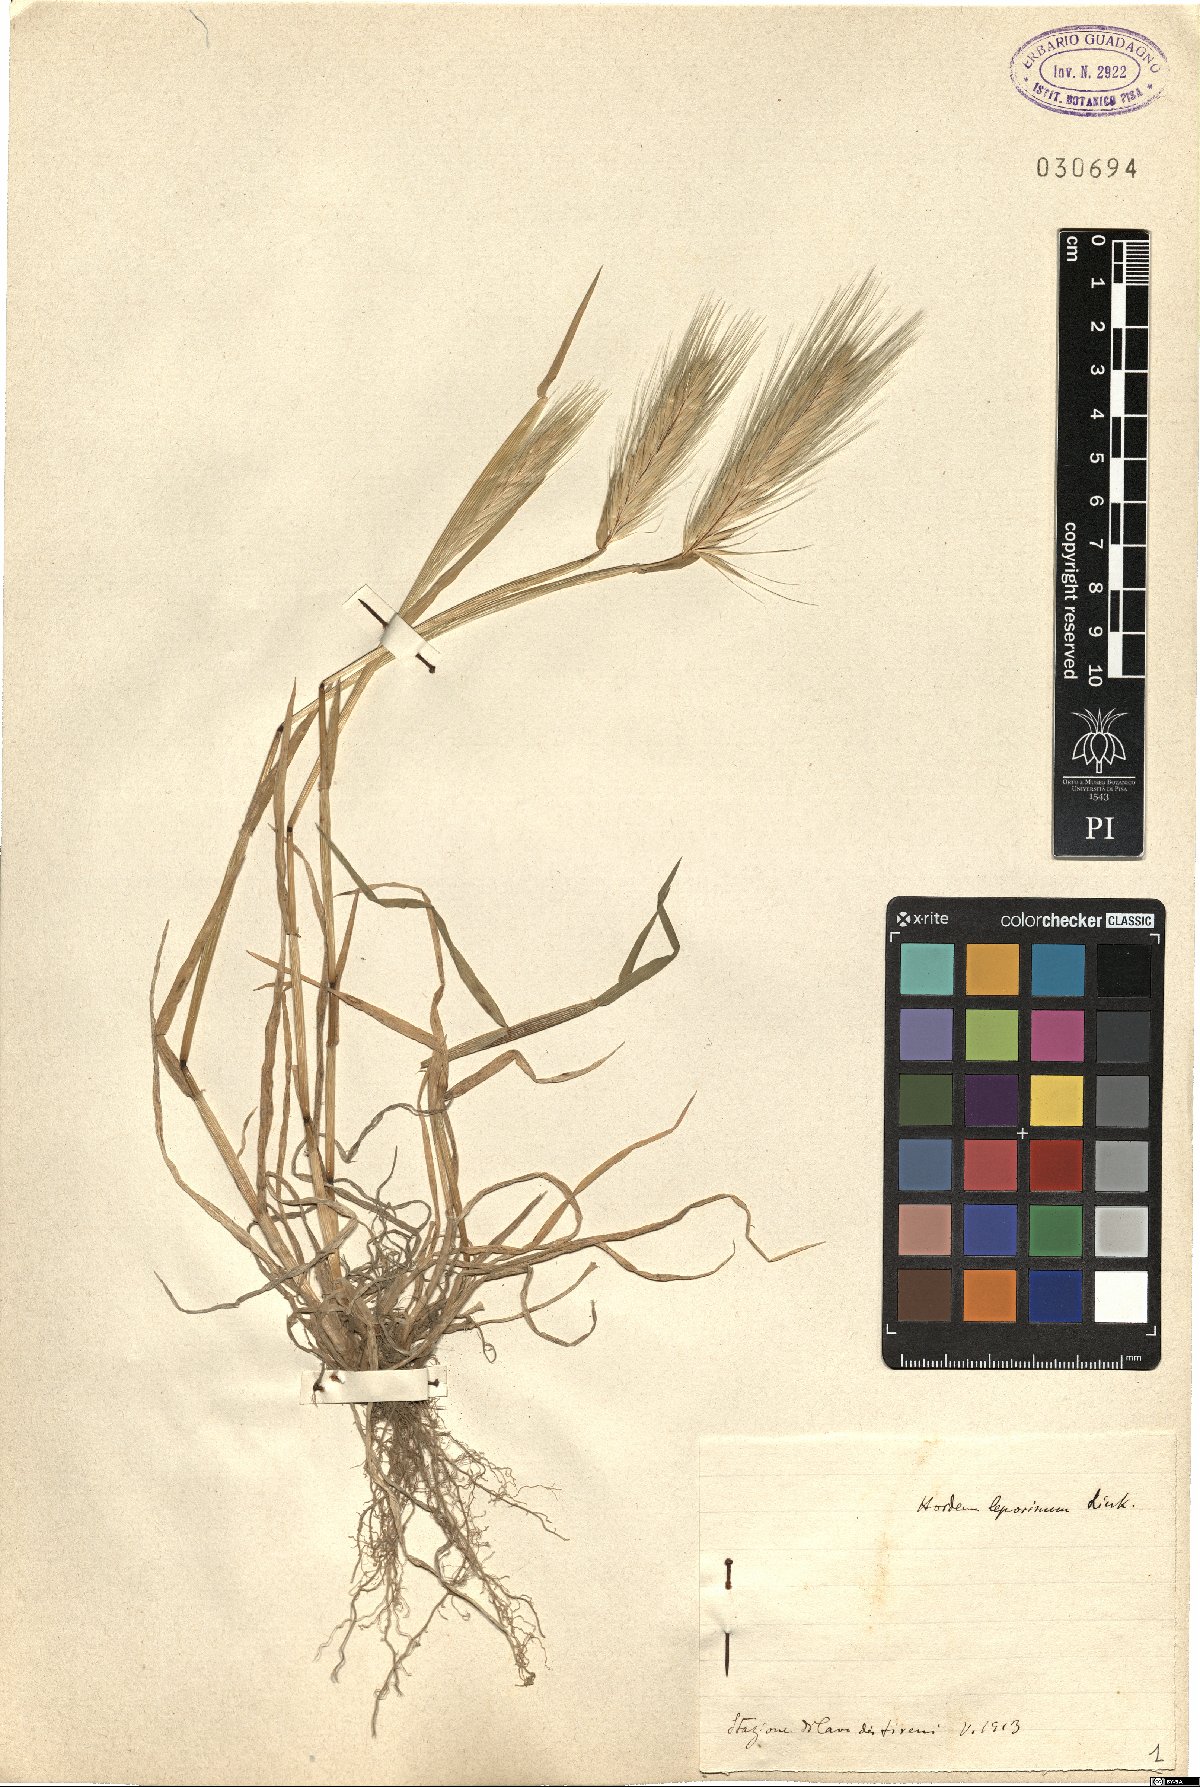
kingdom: Plantae
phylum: Tracheophyta
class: Liliopsida
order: Poales
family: Poaceae
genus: Hordeum
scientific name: Hordeum murinum
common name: Wall barley
